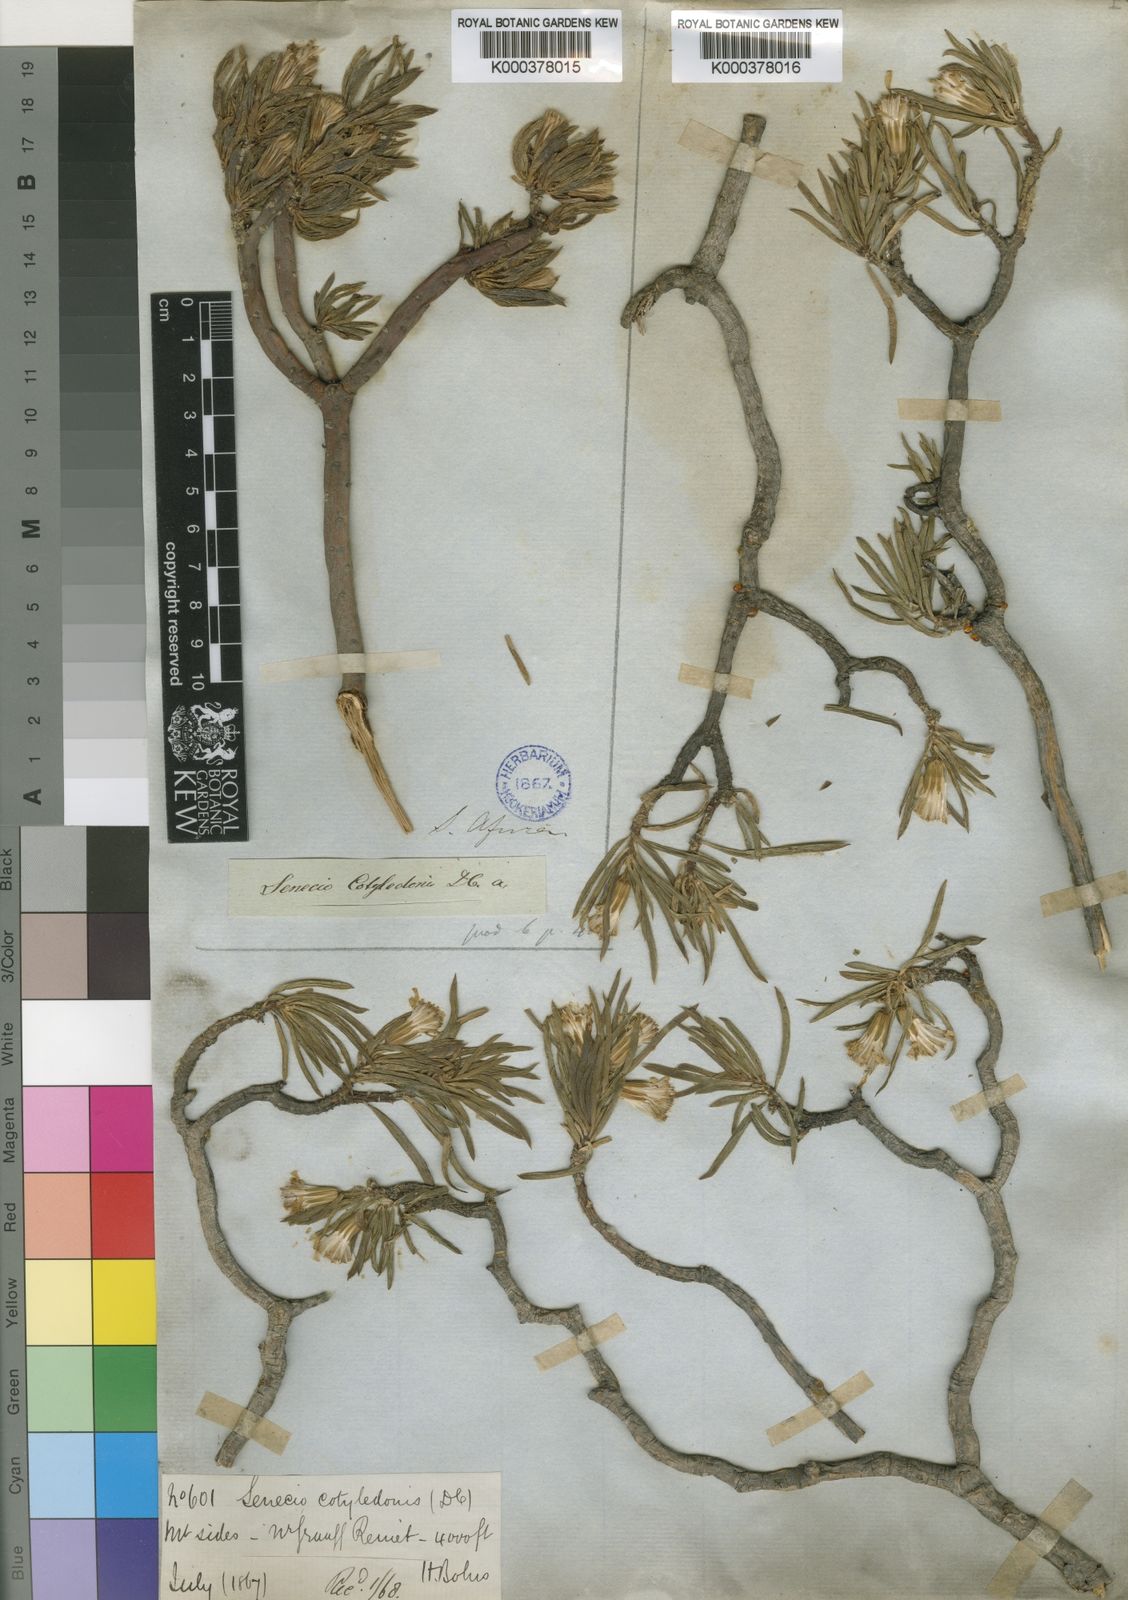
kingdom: Plantae
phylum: Tracheophyta
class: Magnoliopsida
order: Asterales
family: Asteraceae
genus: Senecio
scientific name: Senecio cotyledonis
